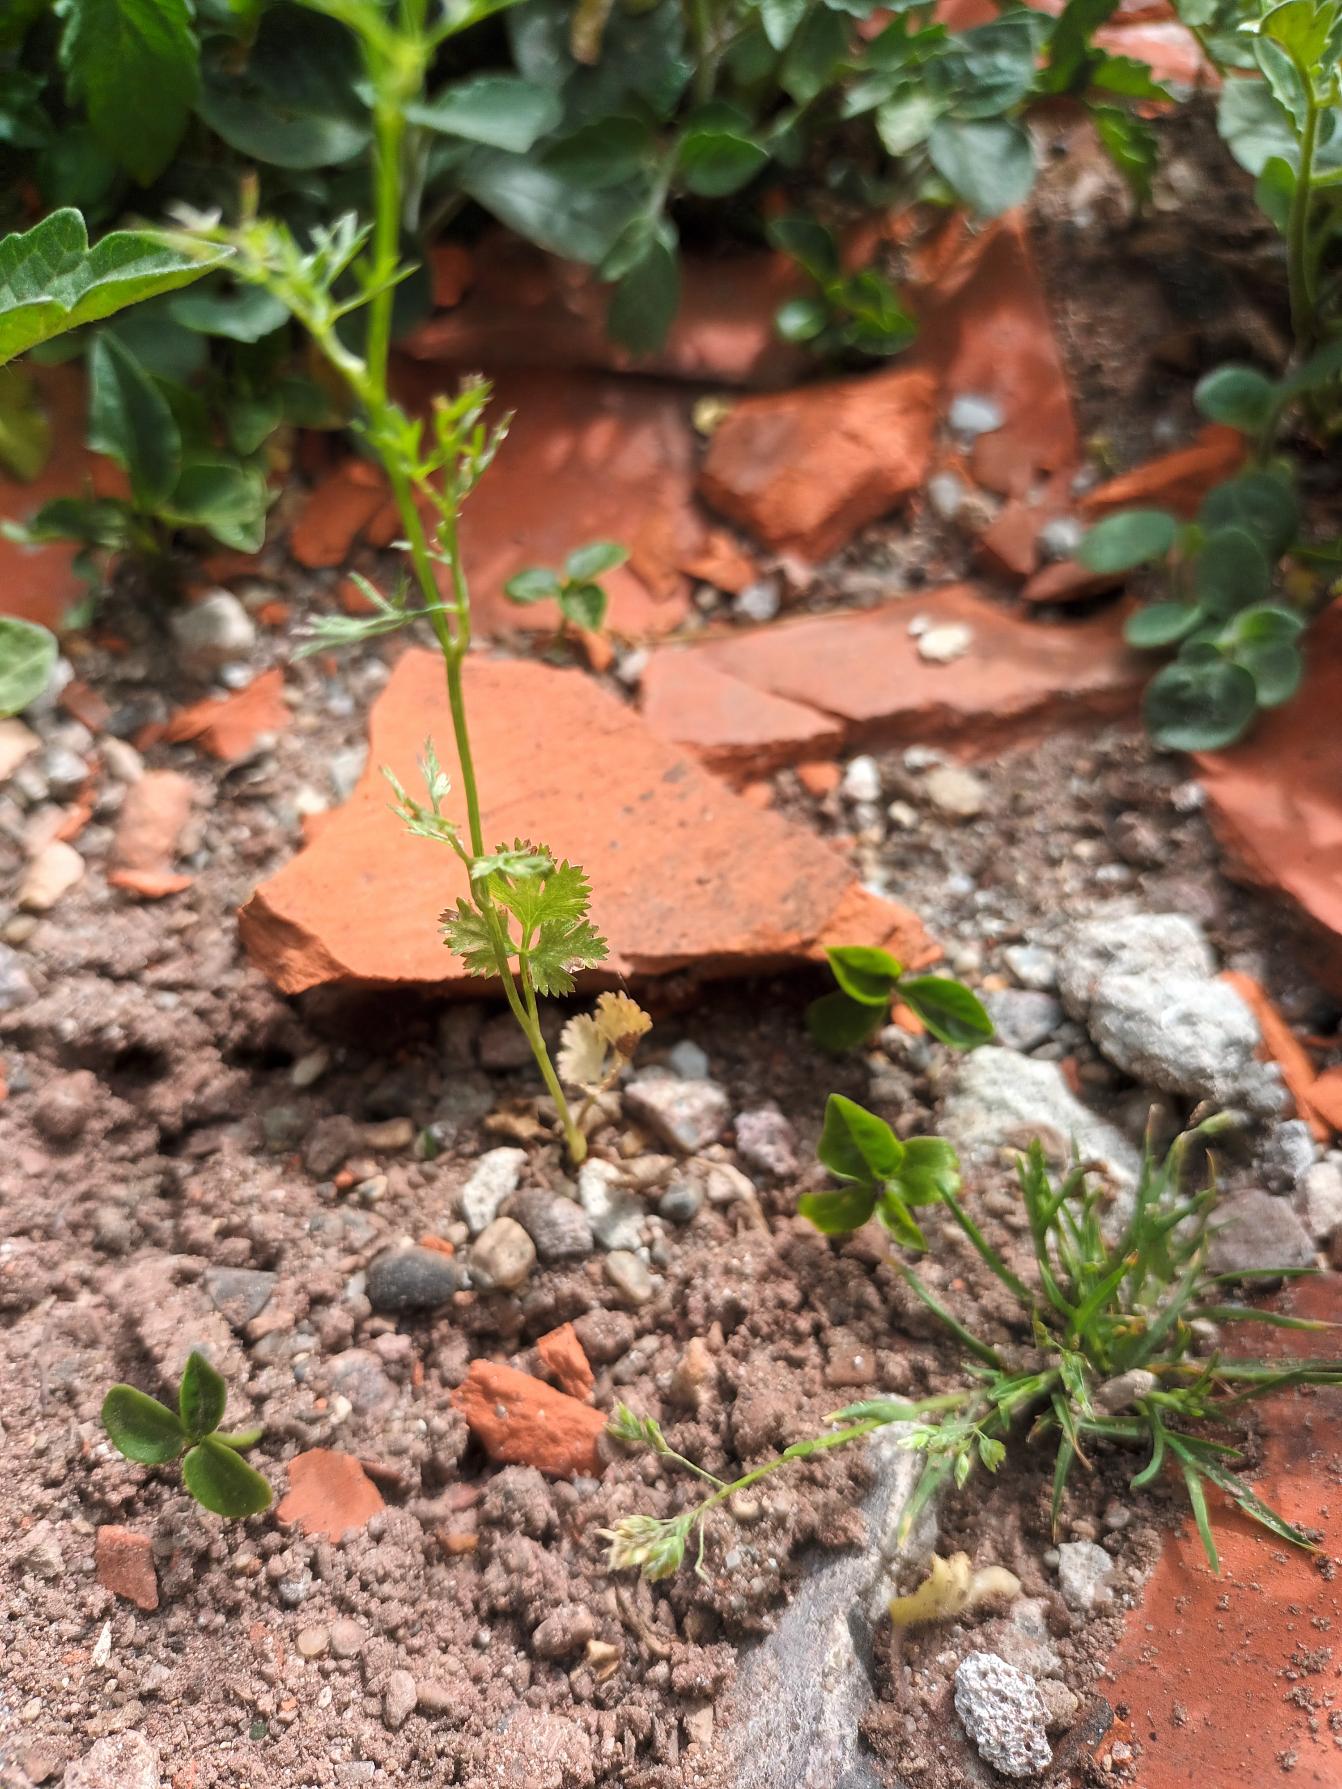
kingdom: Plantae
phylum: Tracheophyta
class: Magnoliopsida
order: Apiales
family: Apiaceae
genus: Coriandrum
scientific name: Coriandrum sativum
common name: Koriander
